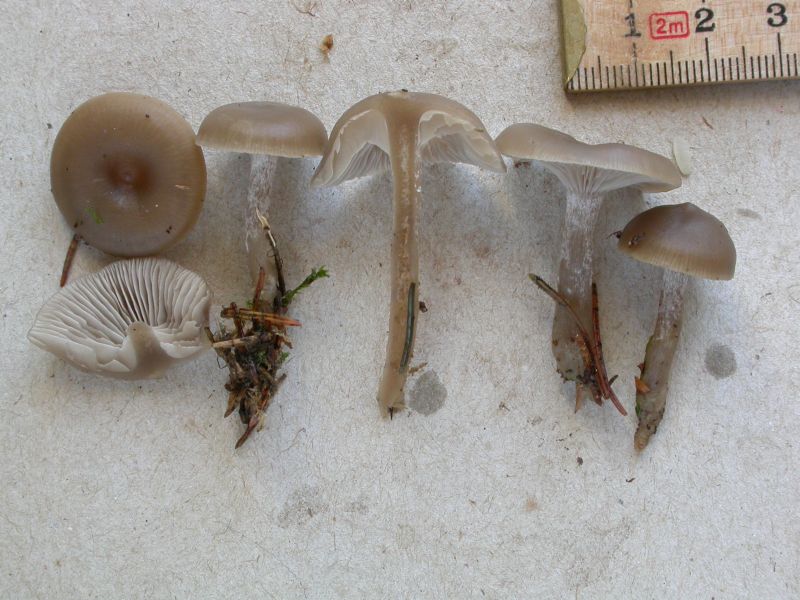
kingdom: Fungi
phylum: Basidiomycota
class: Agaricomycetes
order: Agaricales
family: Tricholomataceae
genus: Clitocybe
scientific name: Clitocybe vibecina
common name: randstribet tragthat
